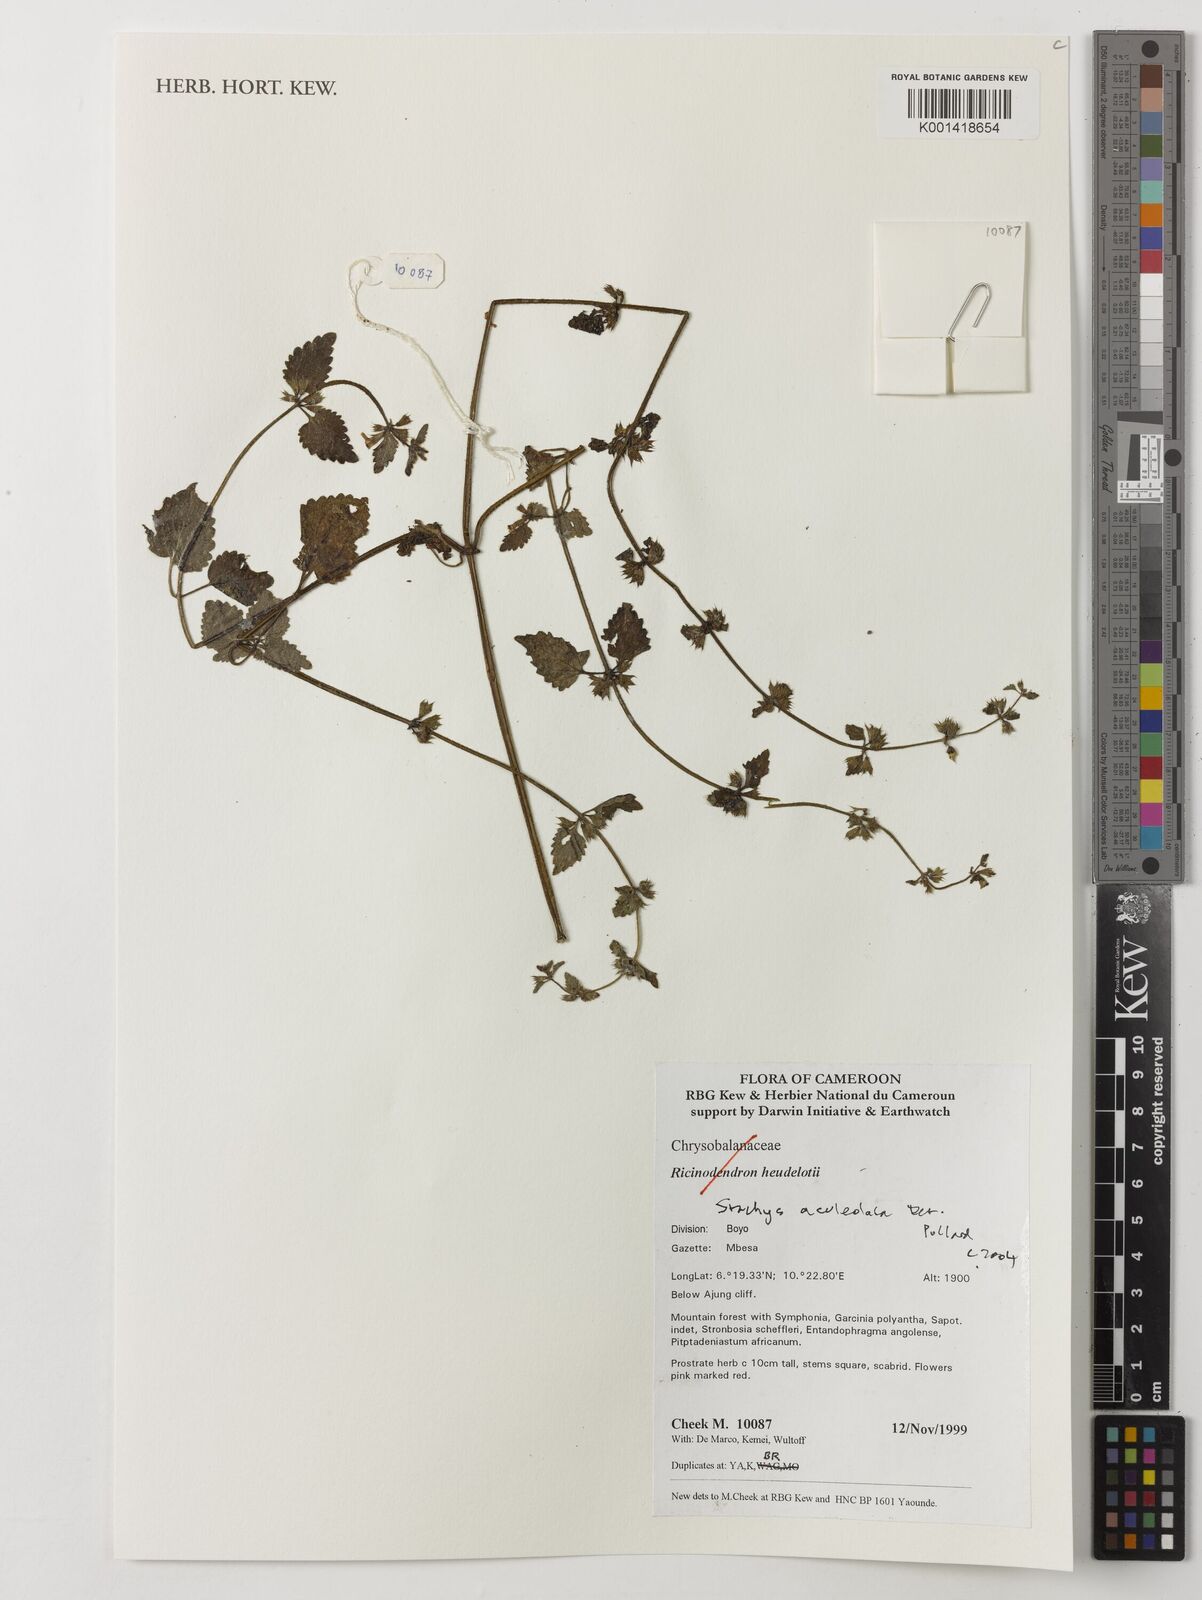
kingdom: Plantae
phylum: Tracheophyta
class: Magnoliopsida
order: Lamiales
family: Lamiaceae
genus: Stachys
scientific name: Stachys aculeolata
